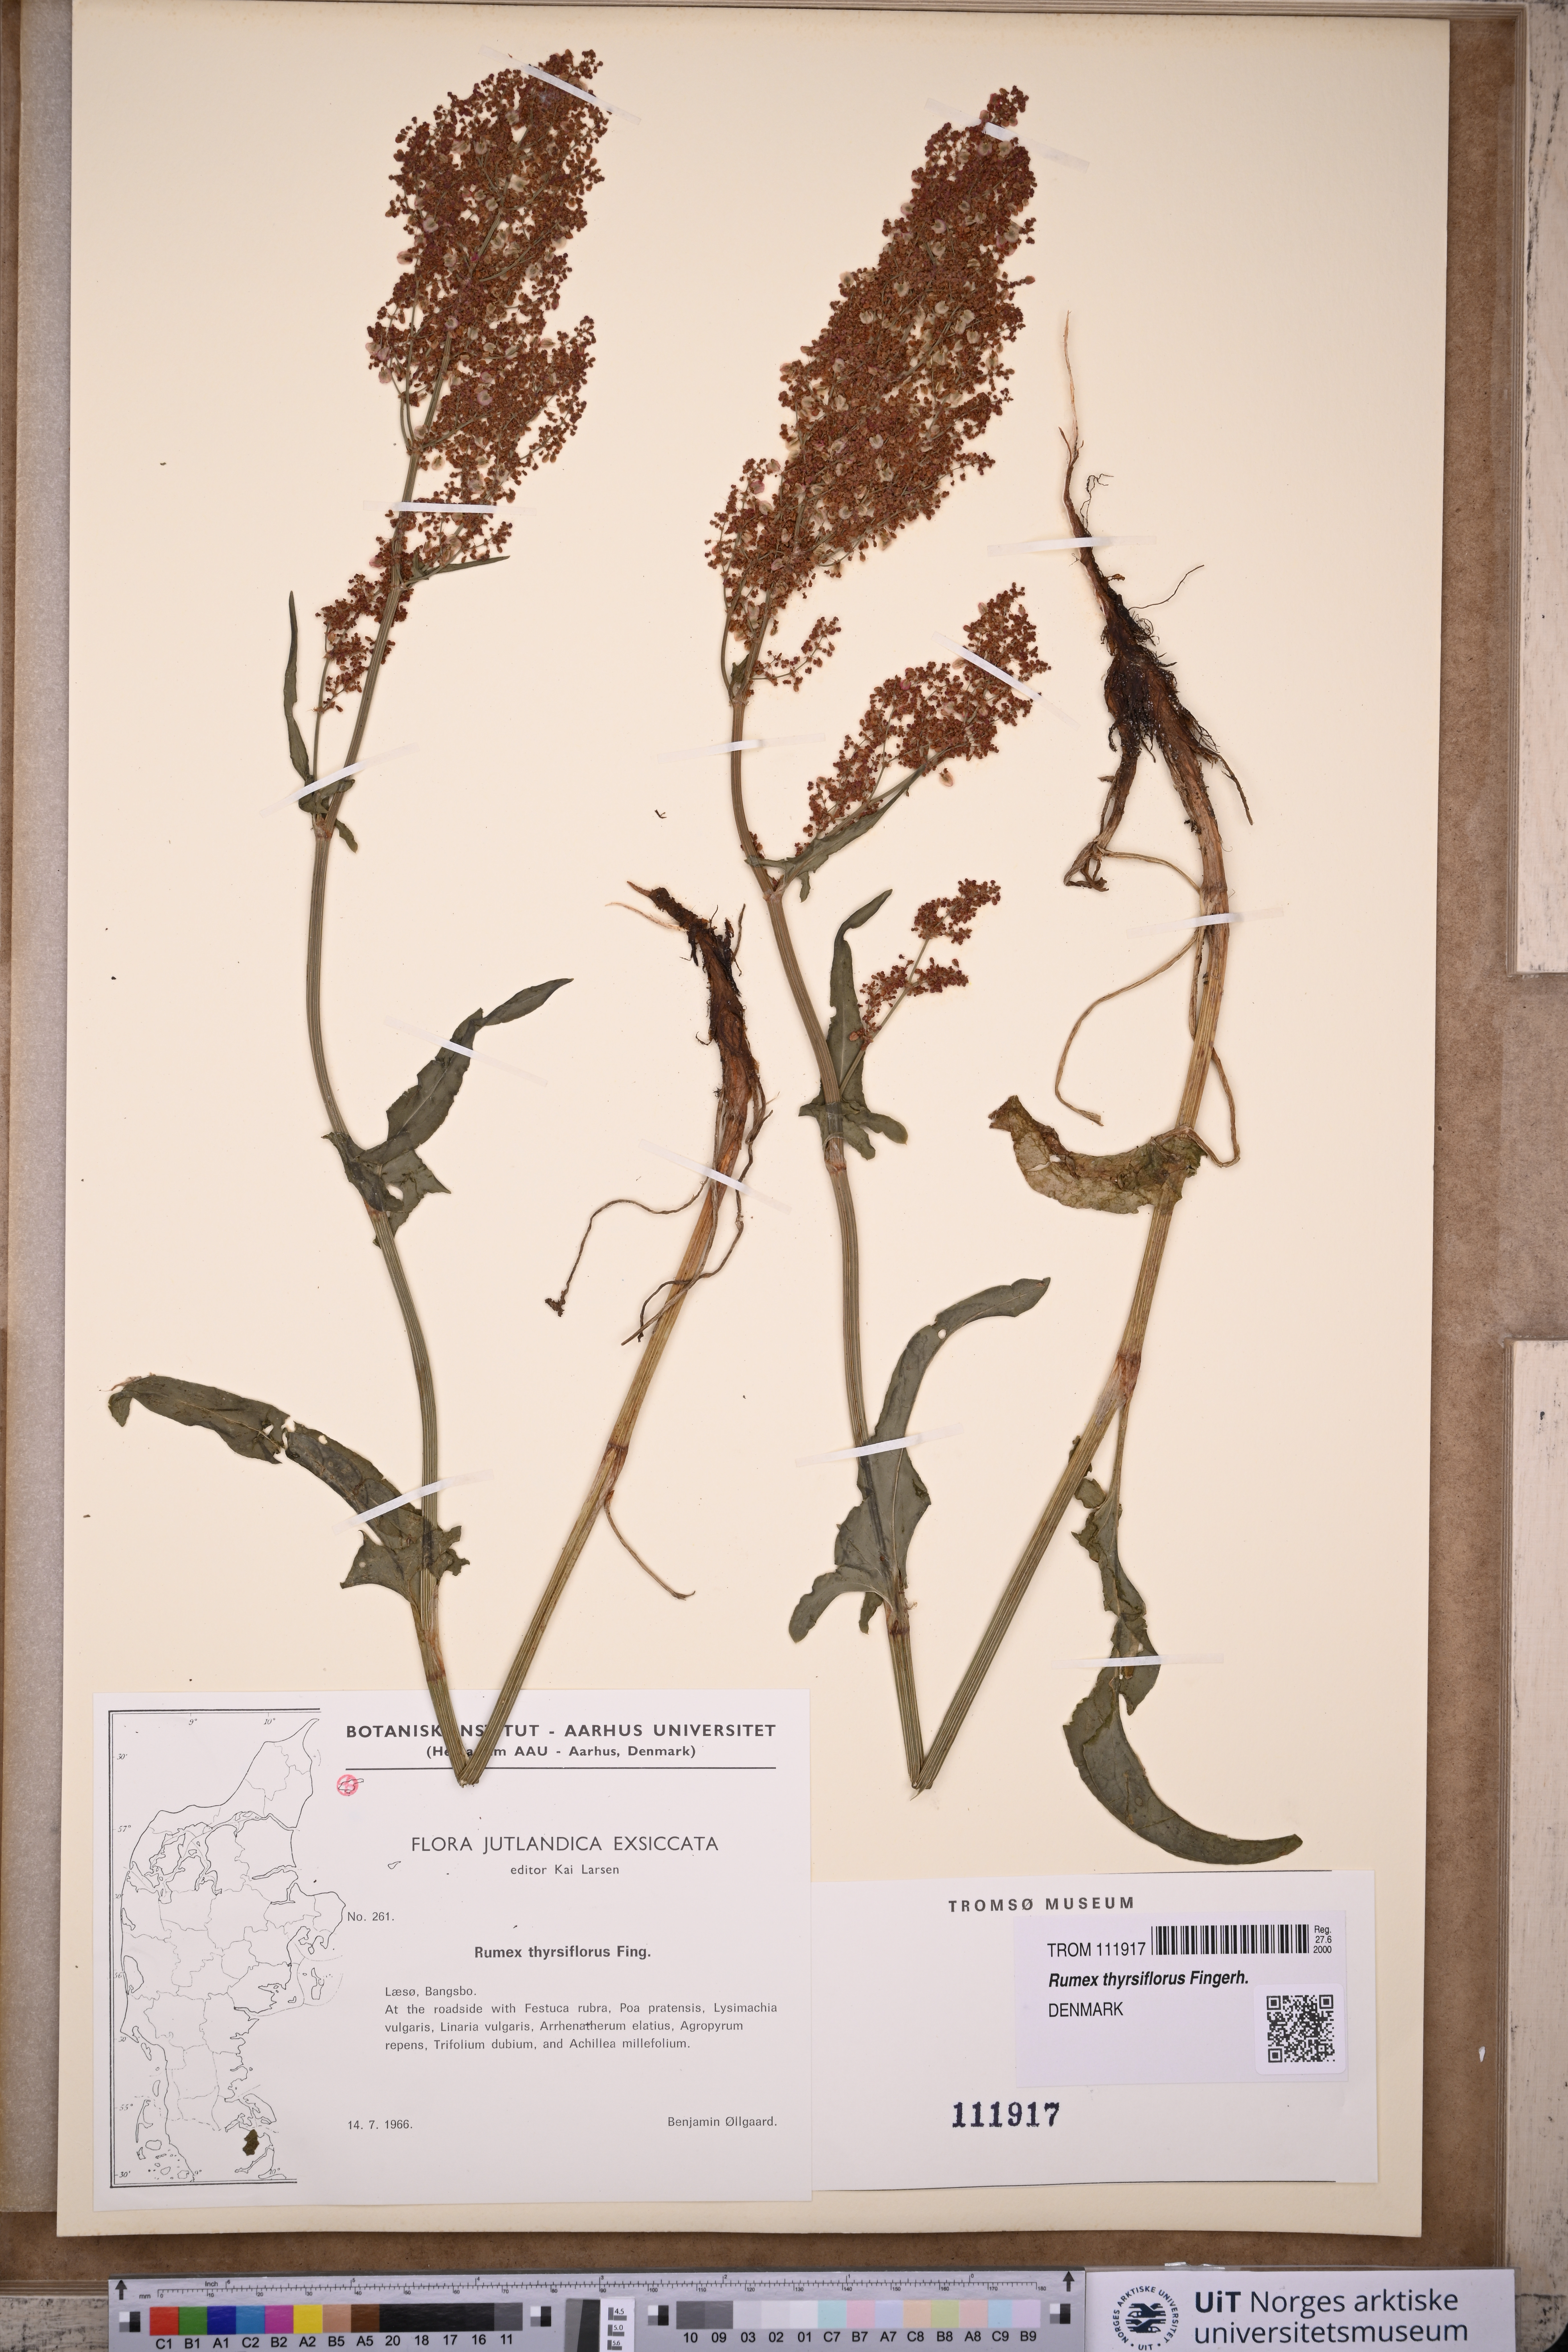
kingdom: Plantae
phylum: Tracheophyta
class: Magnoliopsida
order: Caryophyllales
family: Polygonaceae
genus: Rumex
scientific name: Rumex thyrsiflorus
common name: Garden sorrel
